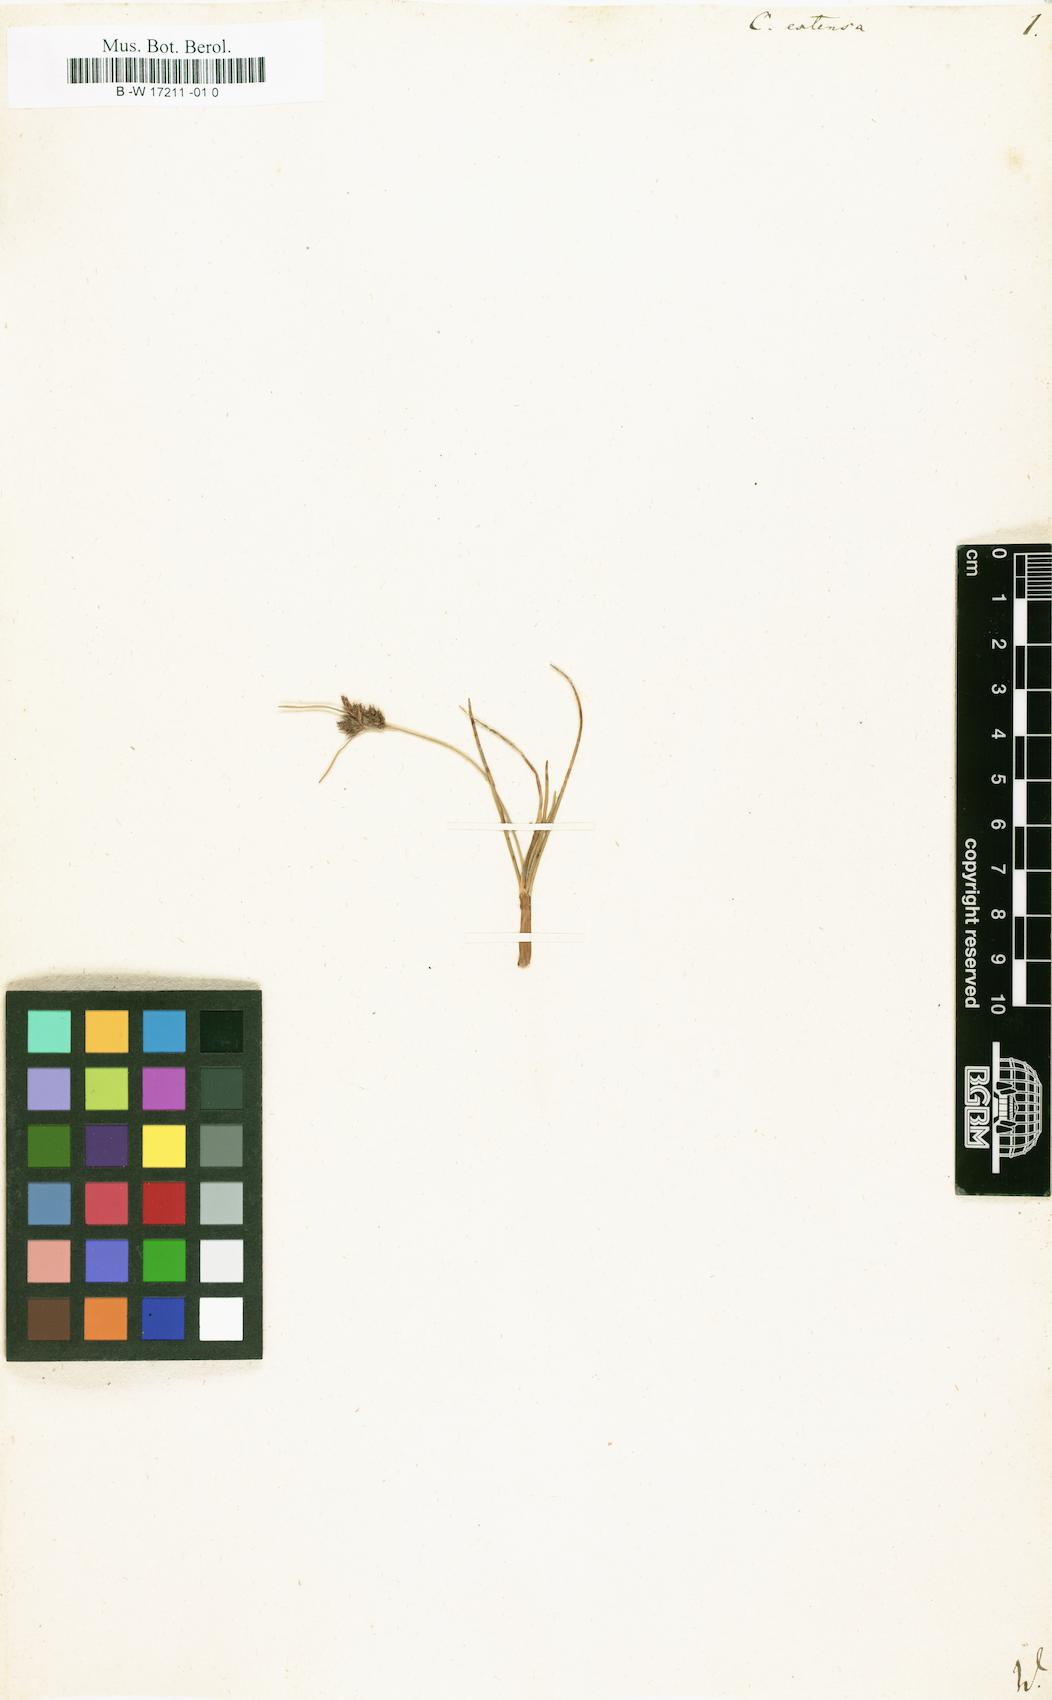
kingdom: Plantae
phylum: Tracheophyta
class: Liliopsida
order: Poales
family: Cyperaceae
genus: Carex
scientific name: Carex extensa
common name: Long-bracted sedge
